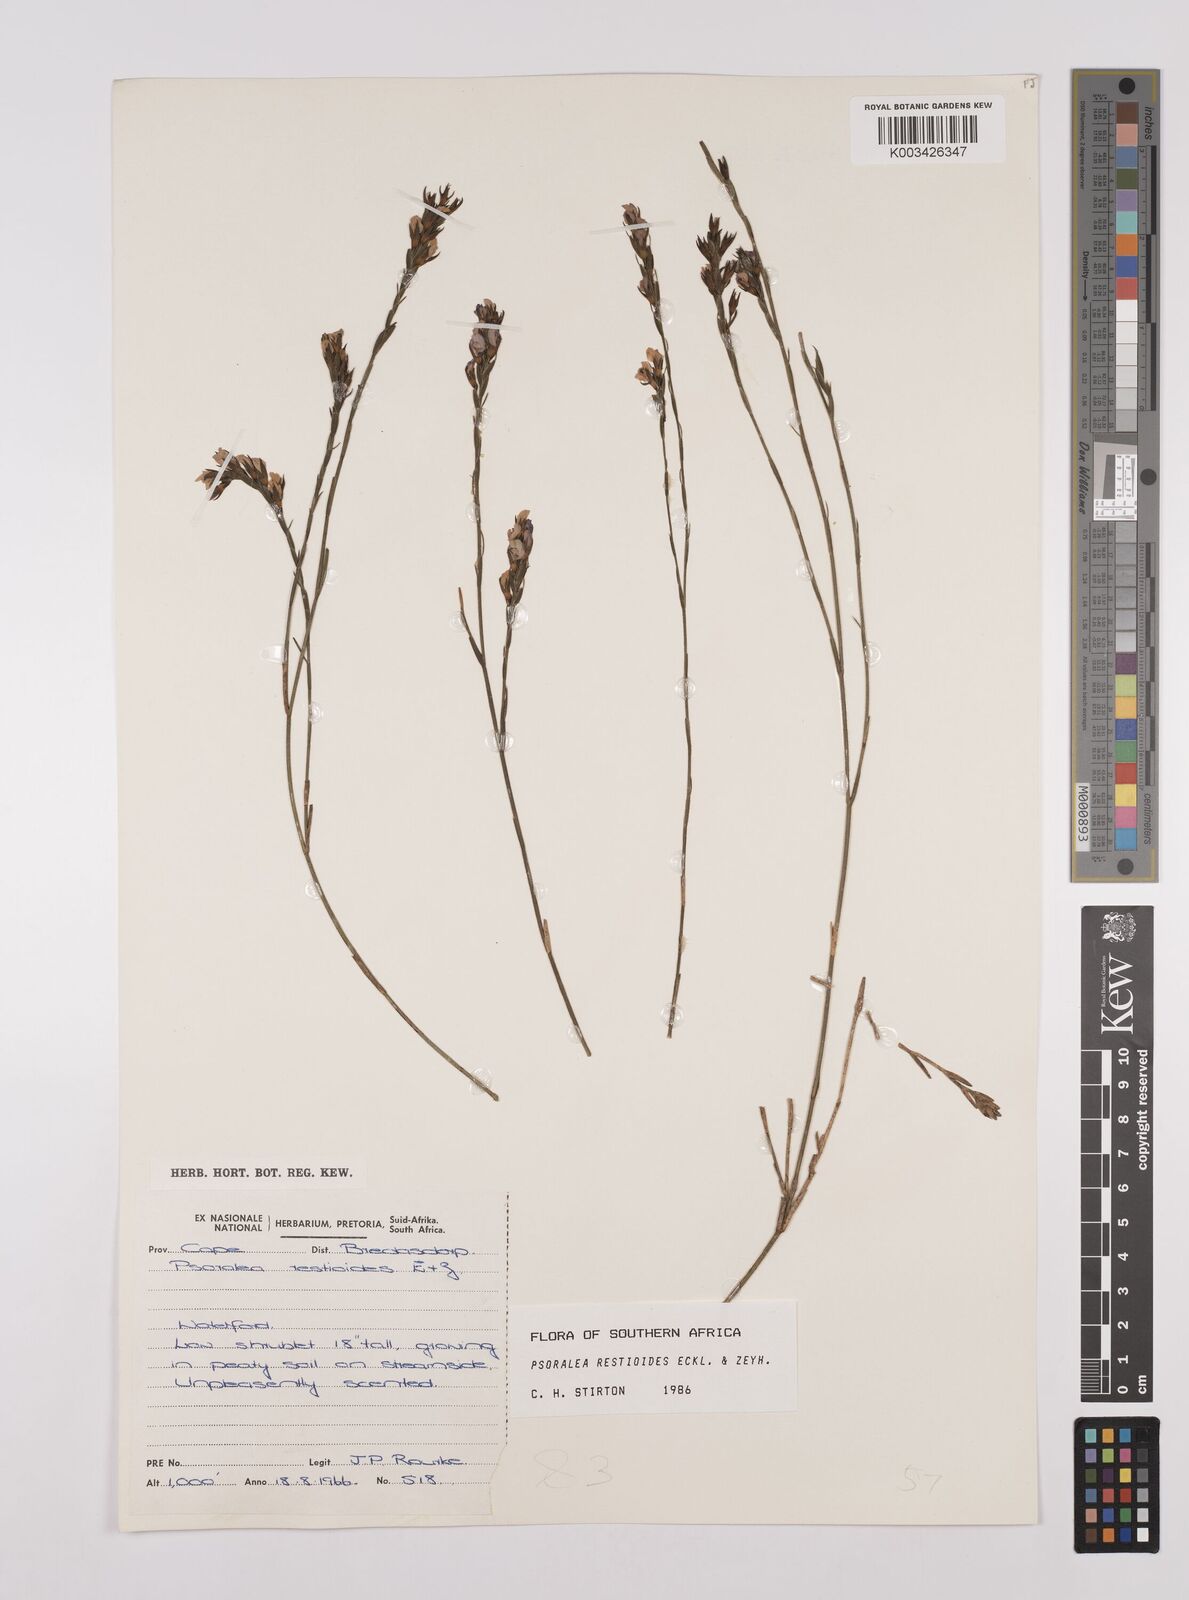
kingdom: Plantae
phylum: Tracheophyta
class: Magnoliopsida
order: Fabales
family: Fabaceae
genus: Psoralea
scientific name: Psoralea restioides
